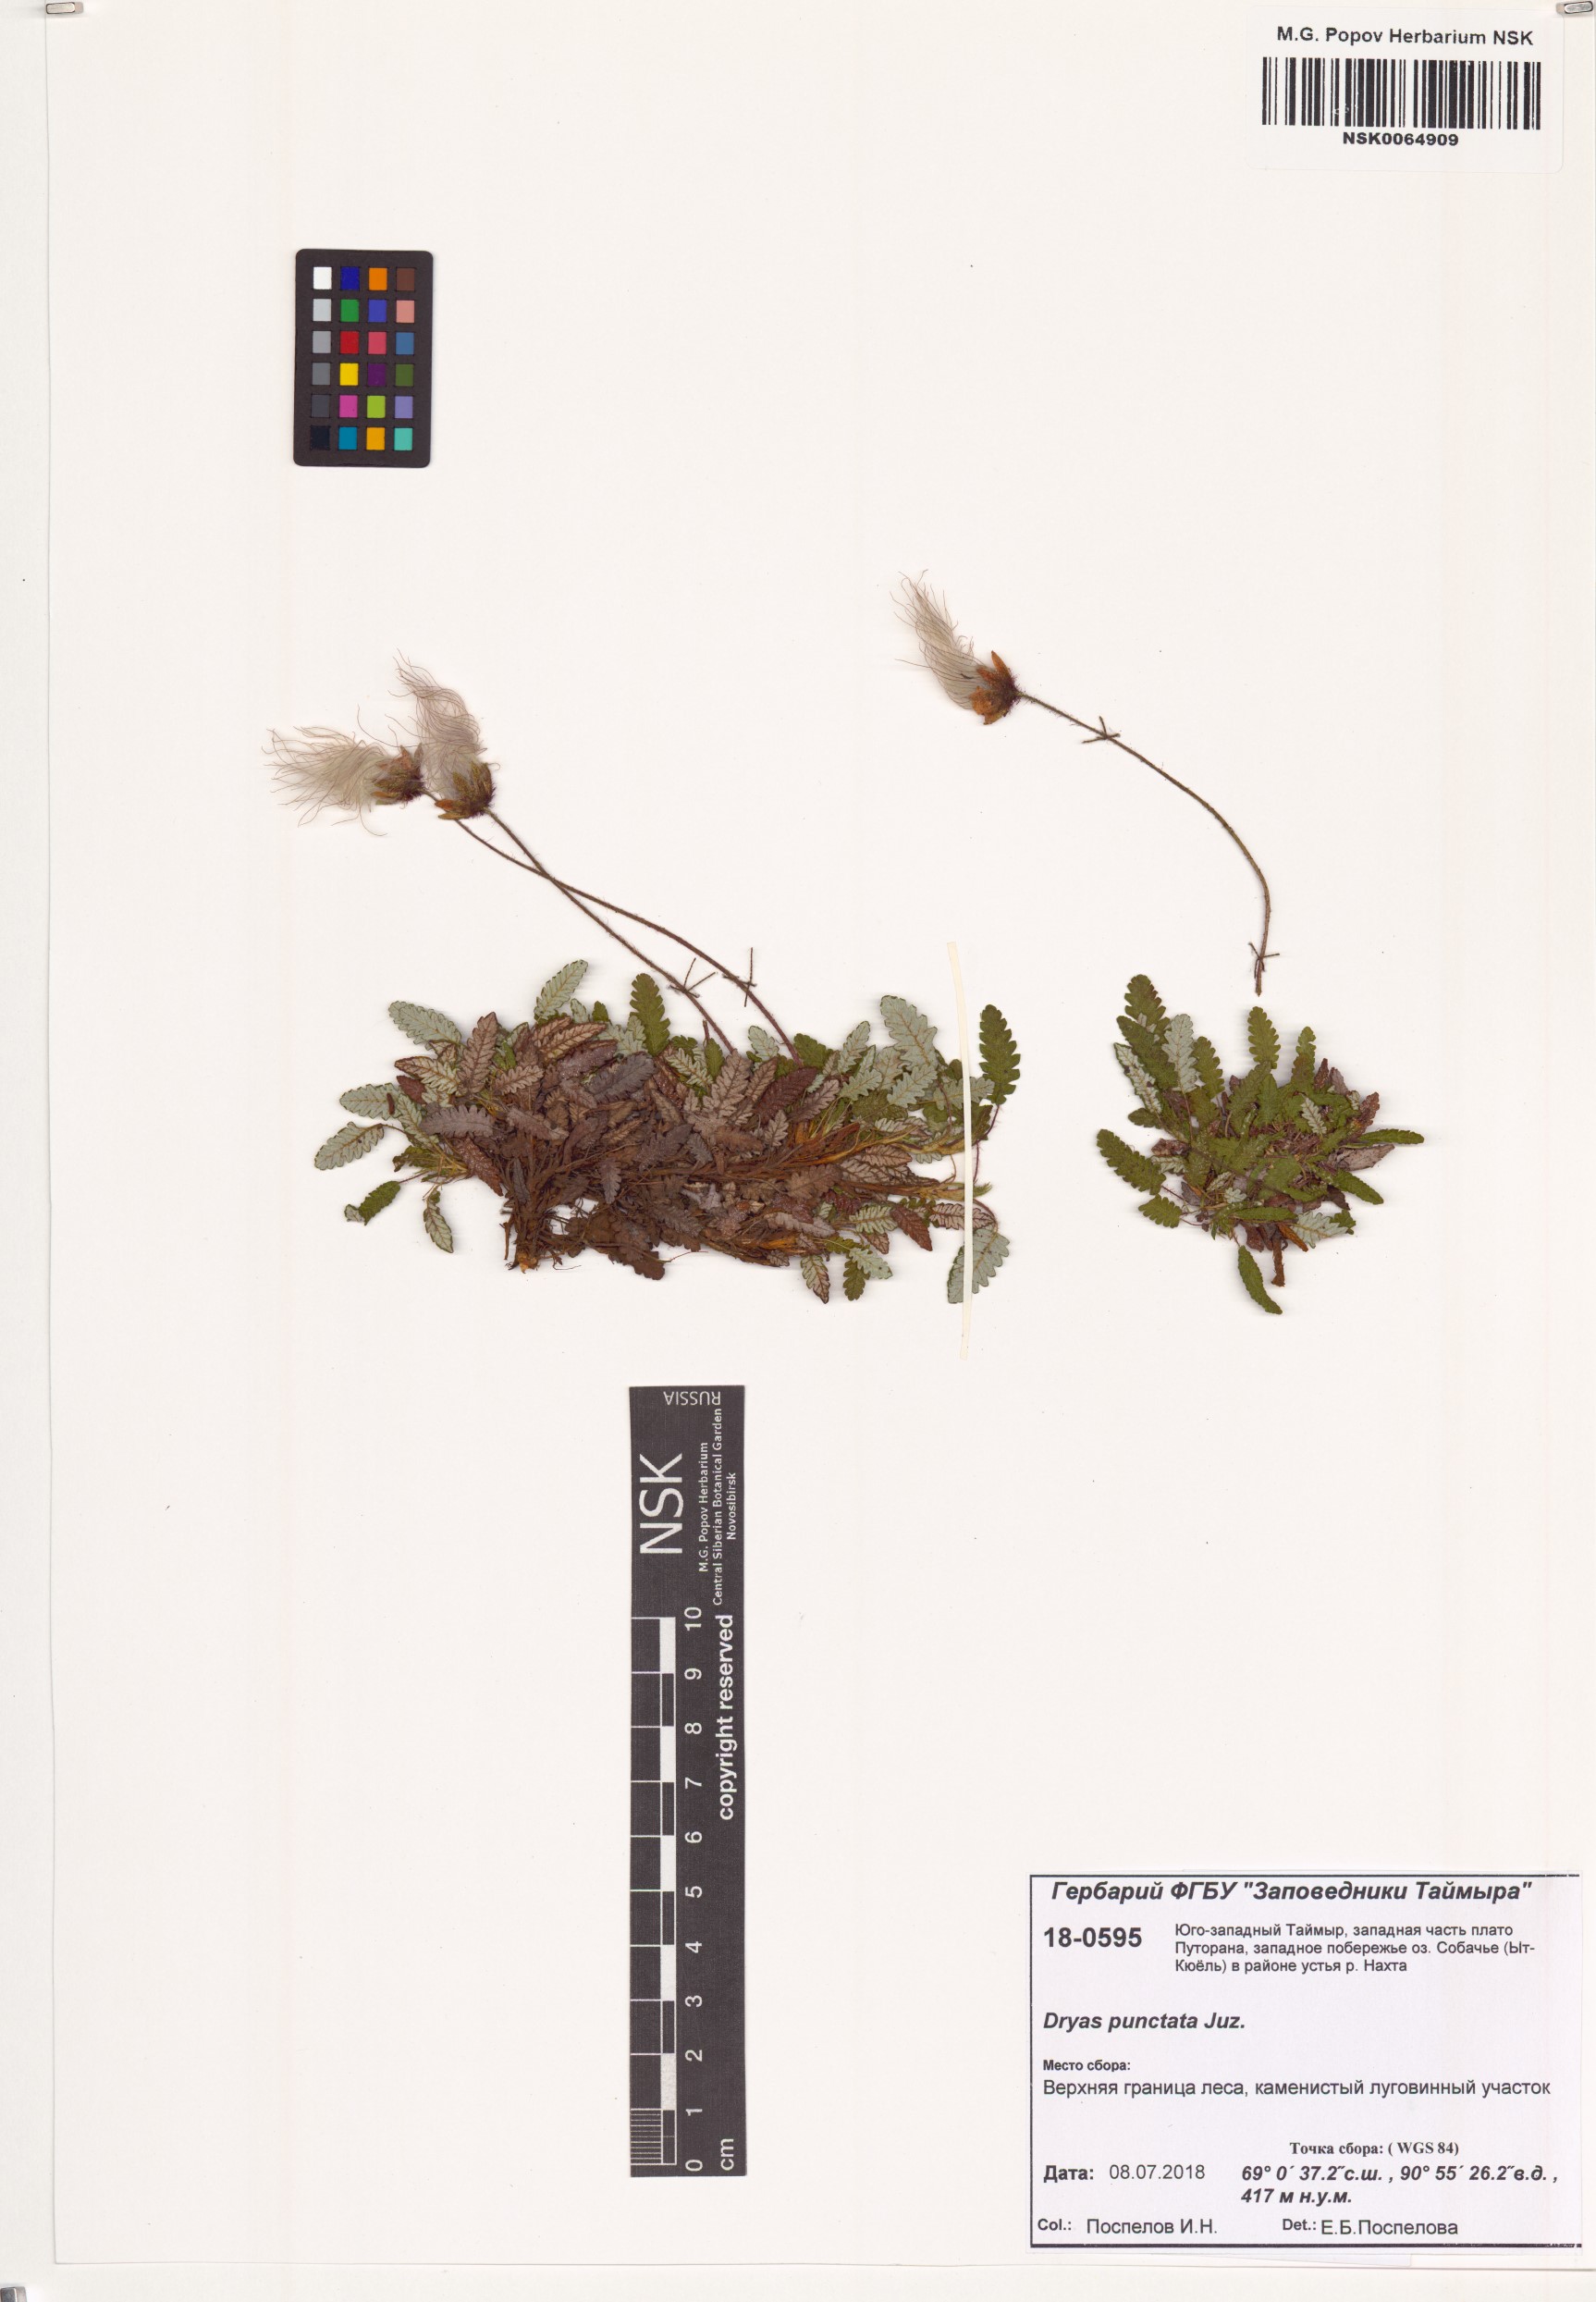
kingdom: Plantae
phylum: Tracheophyta
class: Magnoliopsida
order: Rosales
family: Rosaceae
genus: Dryas
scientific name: Dryas octopetala
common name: Eight-petal mountain-avens
